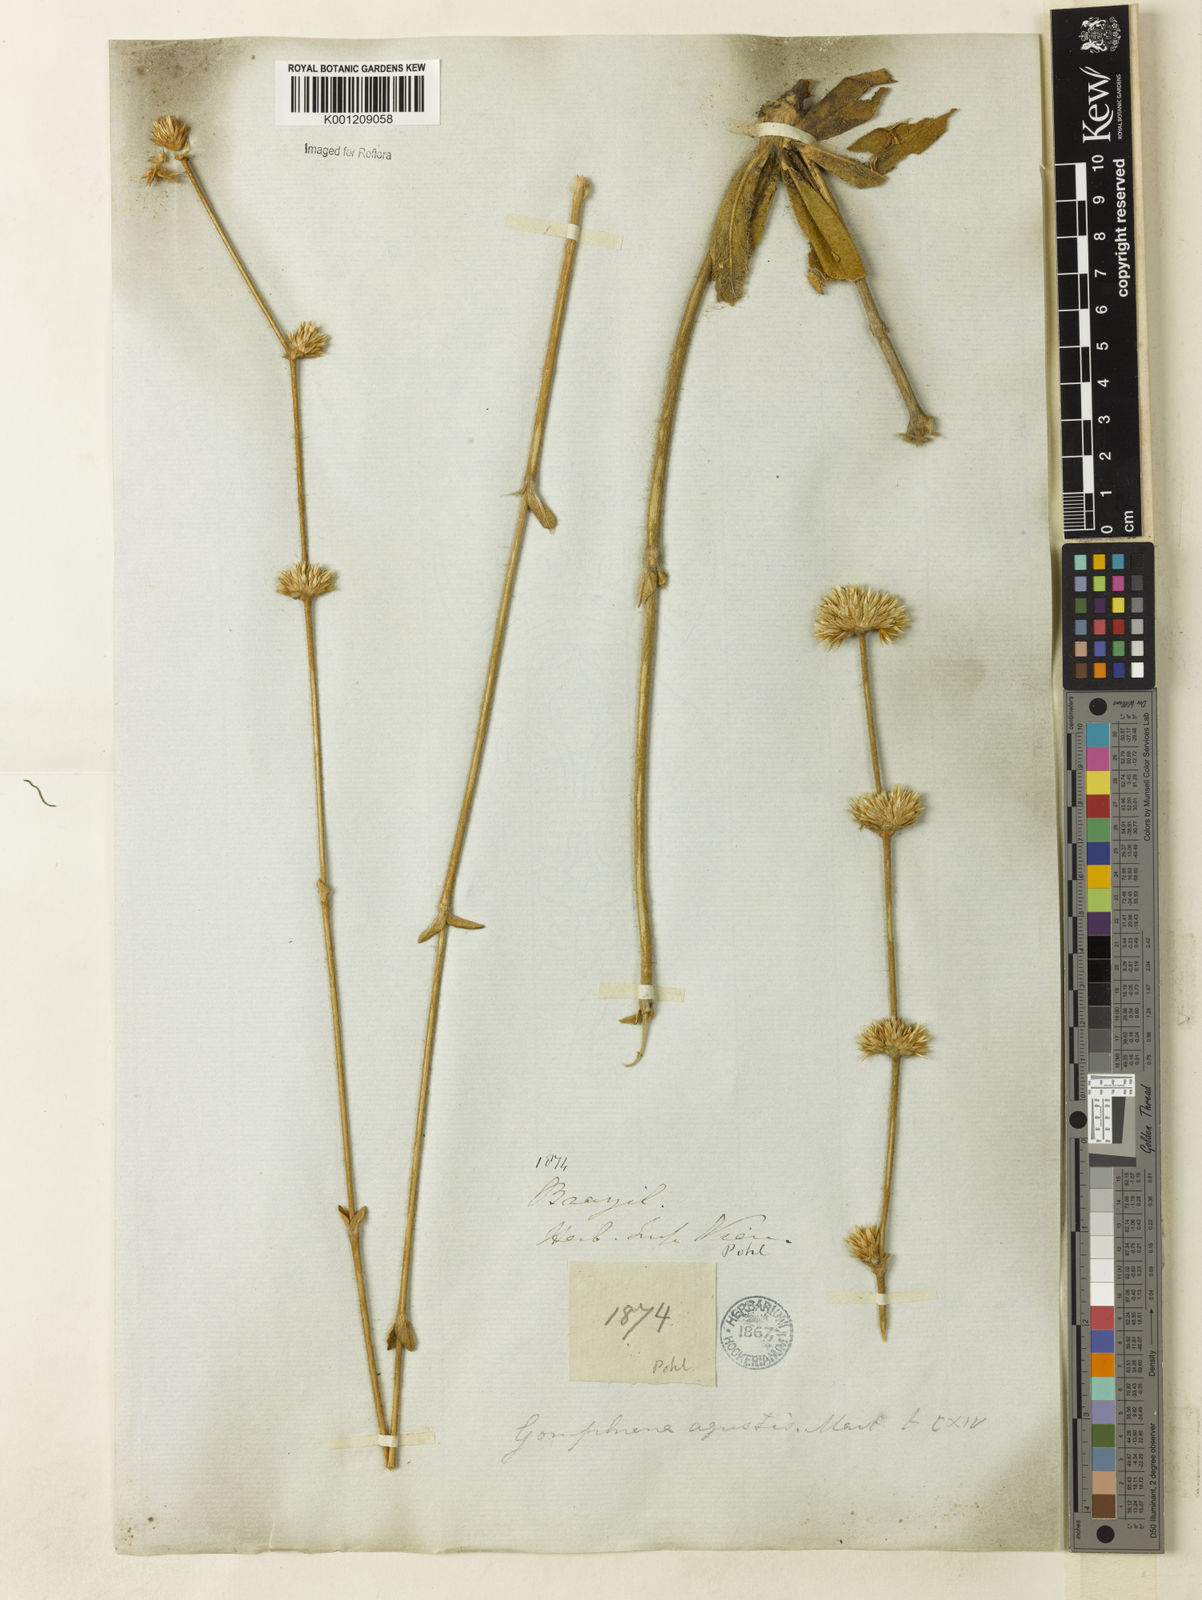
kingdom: Plantae
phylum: Tracheophyta
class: Magnoliopsida
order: Caryophyllales
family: Amaranthaceae
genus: Gomphrena
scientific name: Gomphrena agrestis
